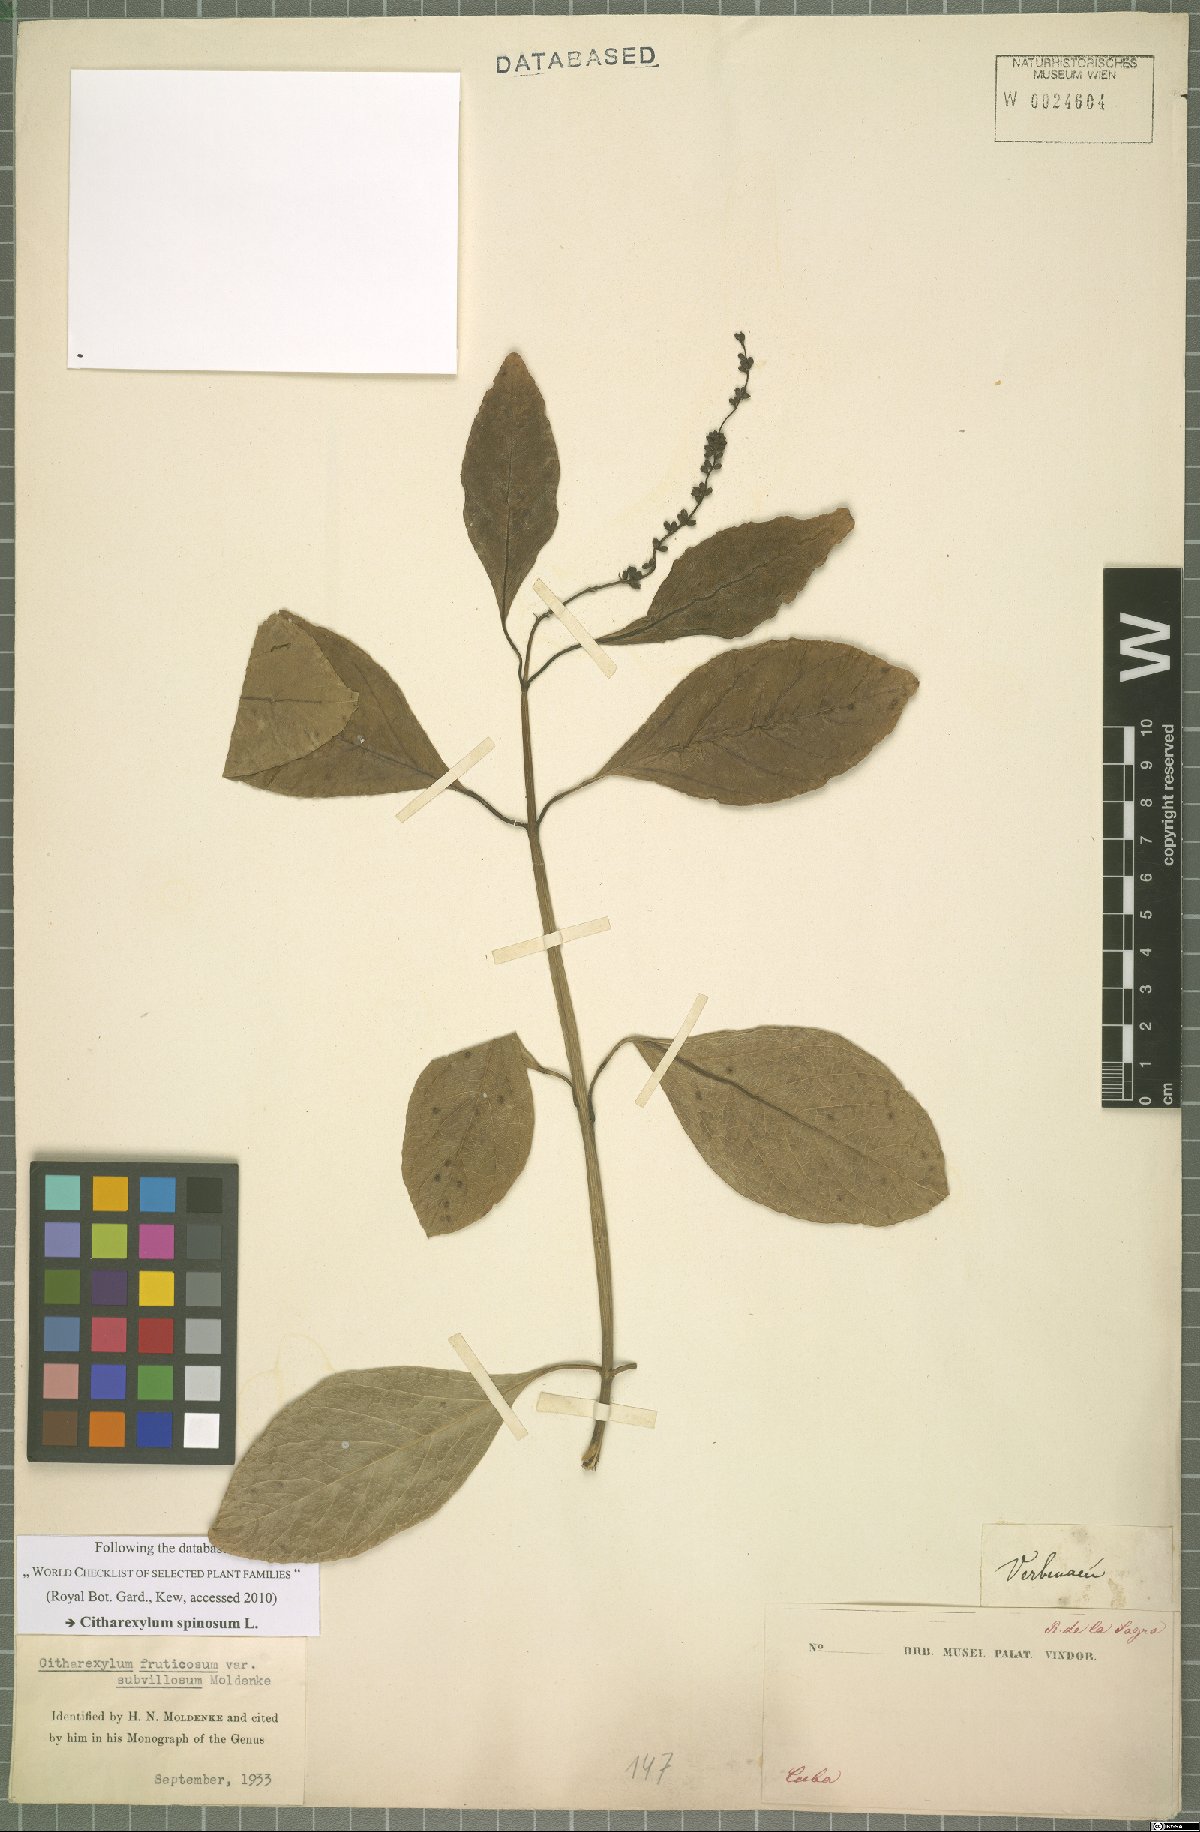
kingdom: Plantae
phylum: Tracheophyta
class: Magnoliopsida
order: Lamiales
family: Verbenaceae
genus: Citharexylum
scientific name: Citharexylum spinosum
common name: Fiddlewood
